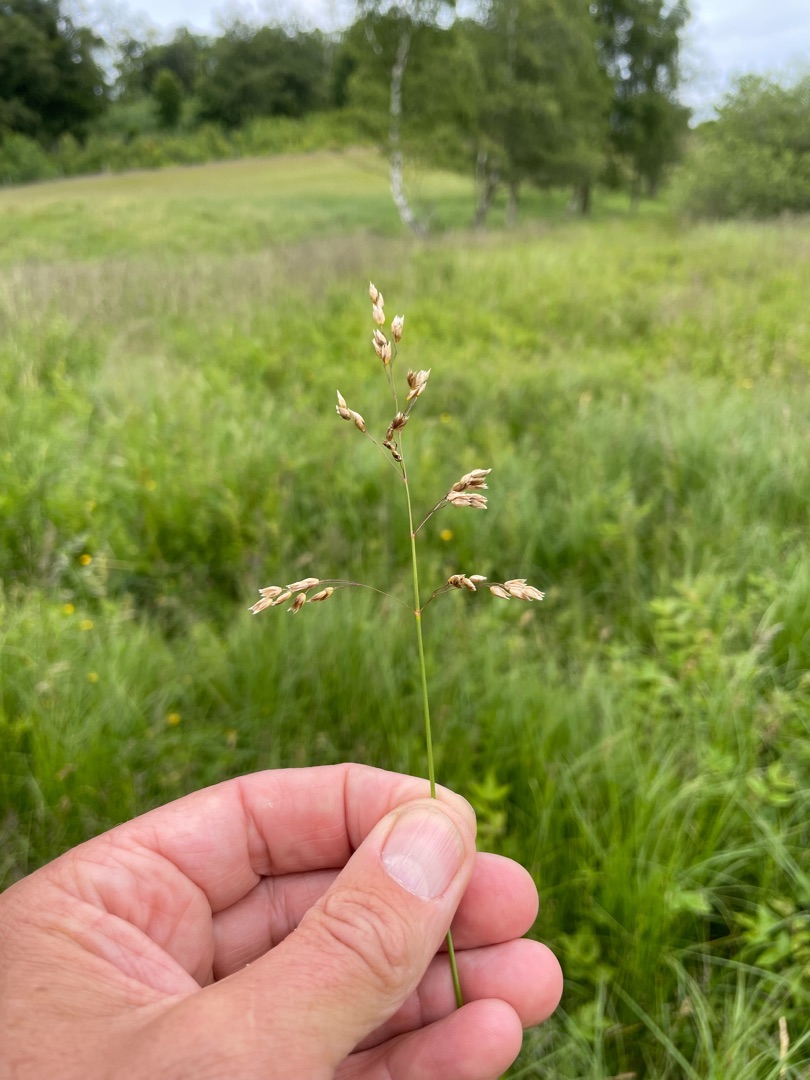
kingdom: Plantae
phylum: Tracheophyta
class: Liliopsida
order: Poales
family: Poaceae
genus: Anthoxanthum
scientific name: Anthoxanthum nitens
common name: Festgræs
